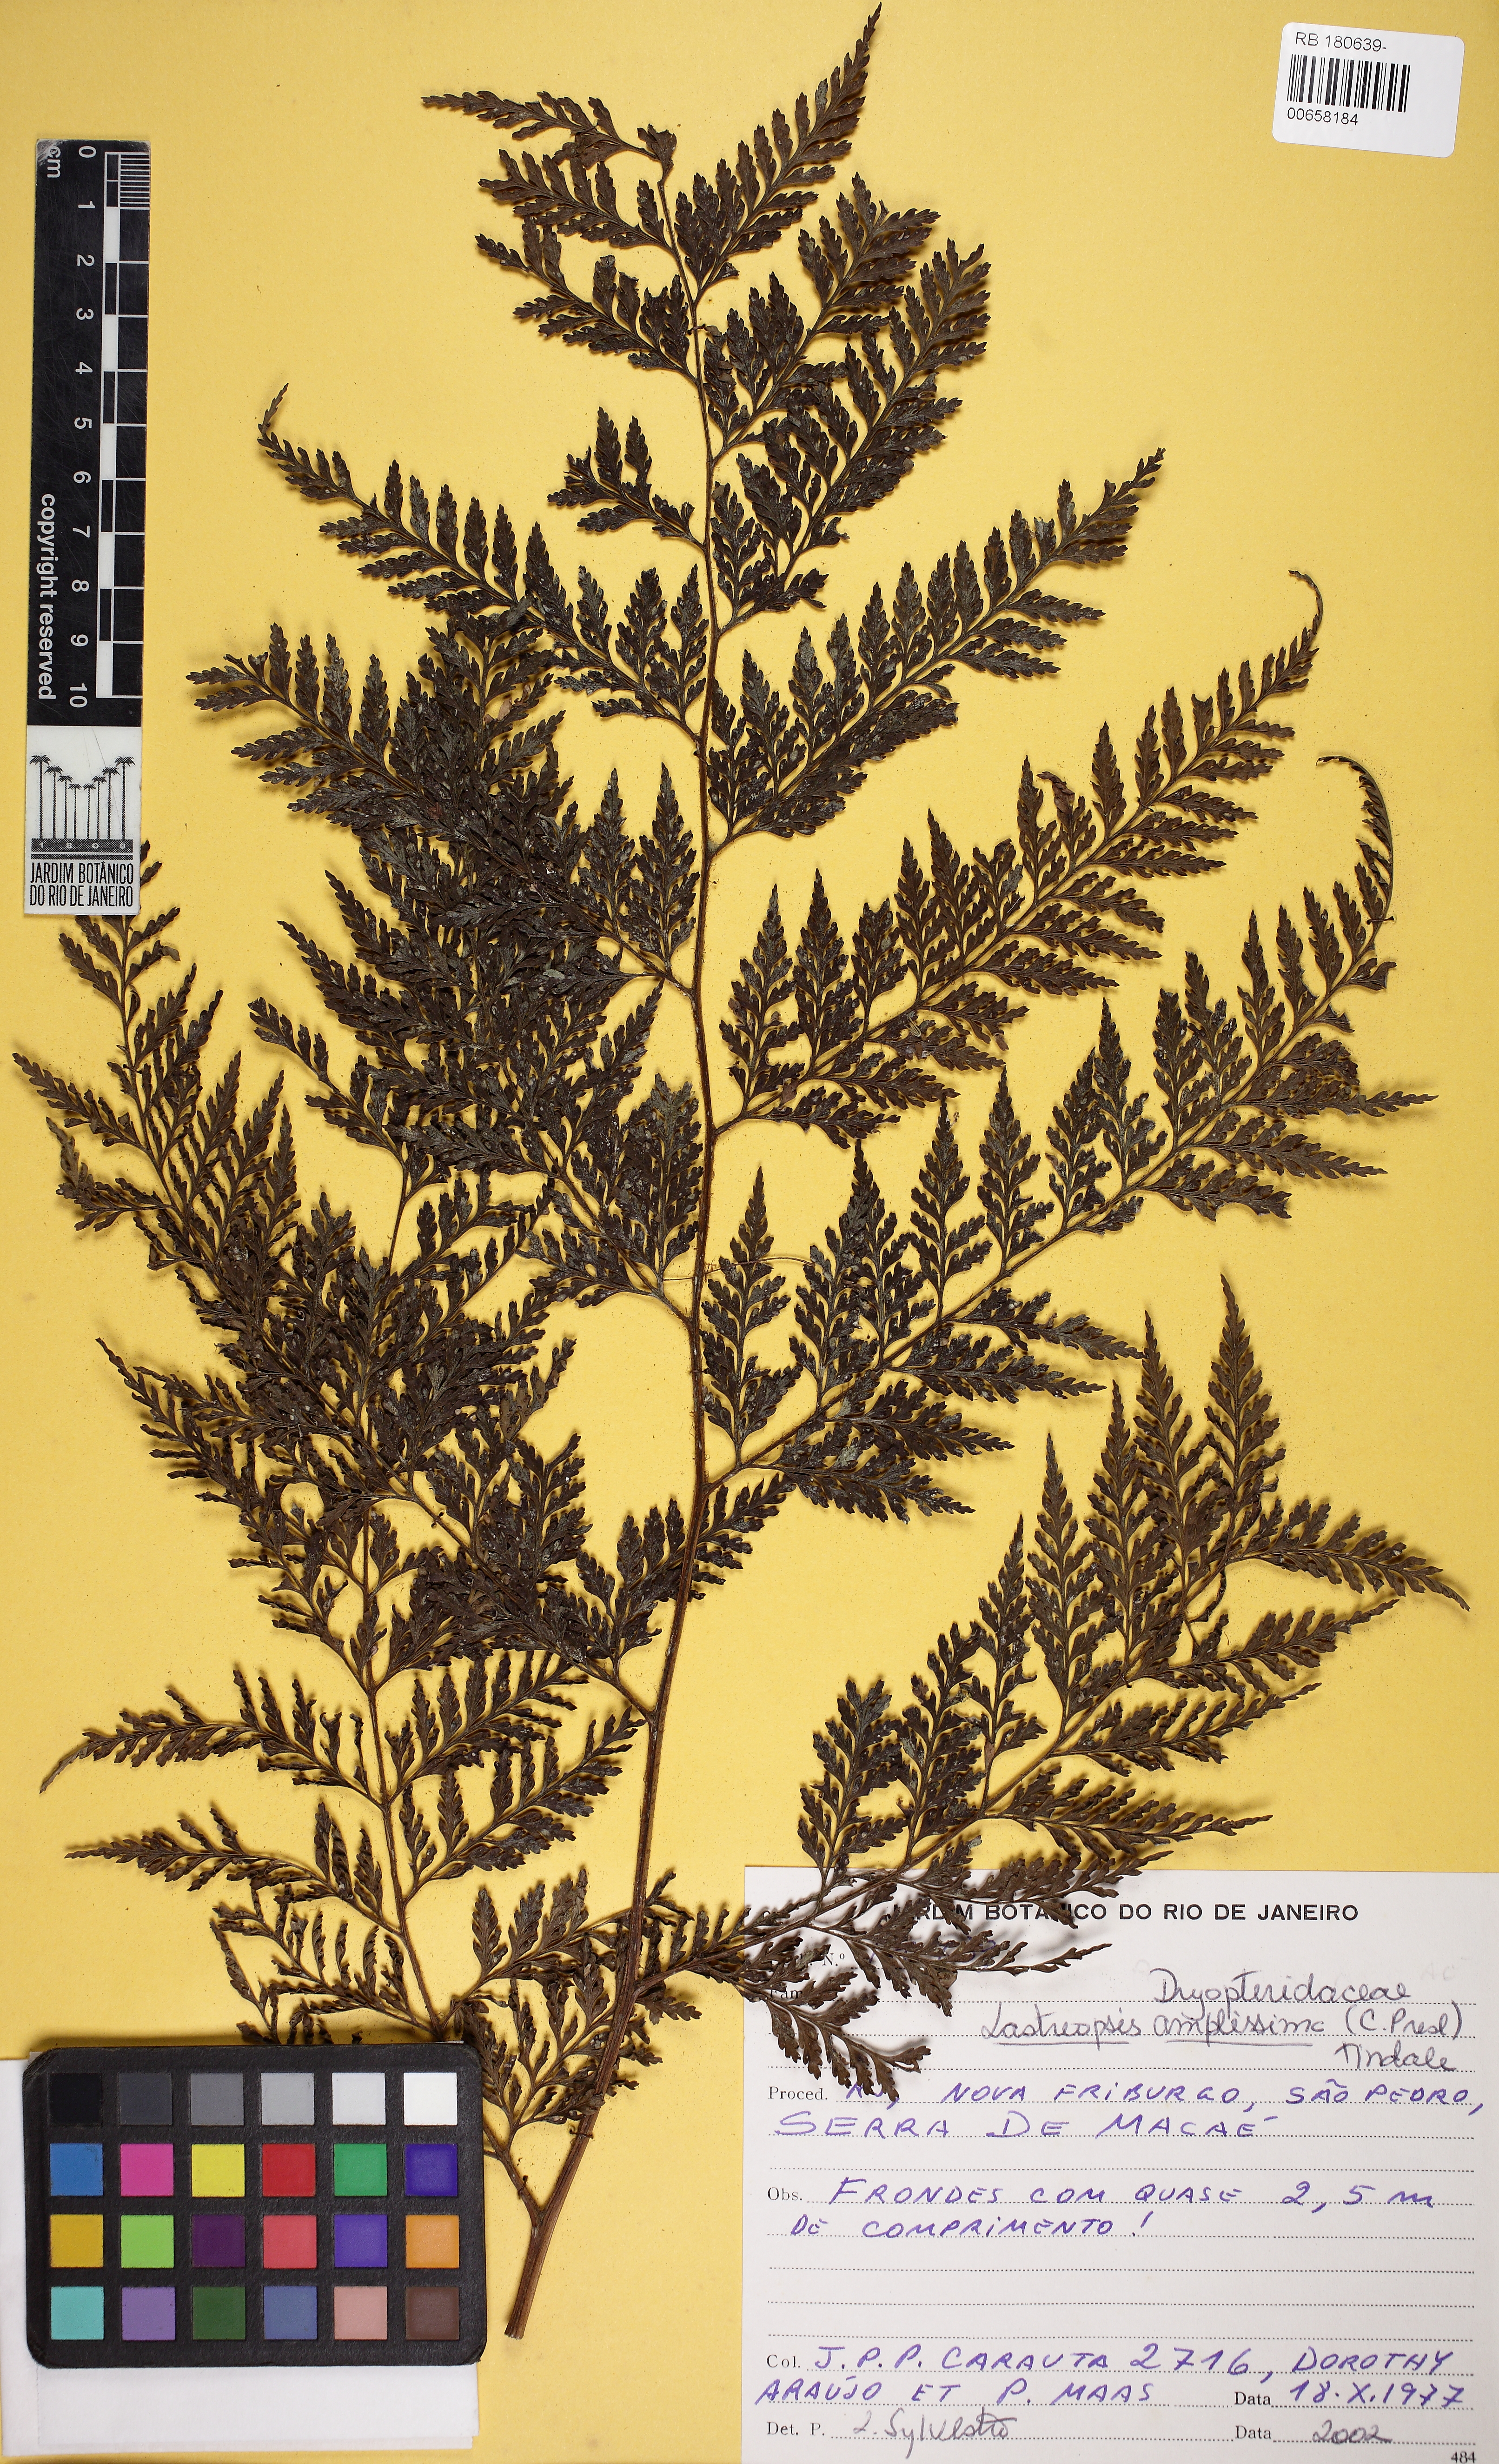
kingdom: Plantae
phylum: Tracheophyta
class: Polypodiopsida
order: Polypodiales
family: Dryopteridaceae
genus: Lastreopsis
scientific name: Lastreopsis amplissima
